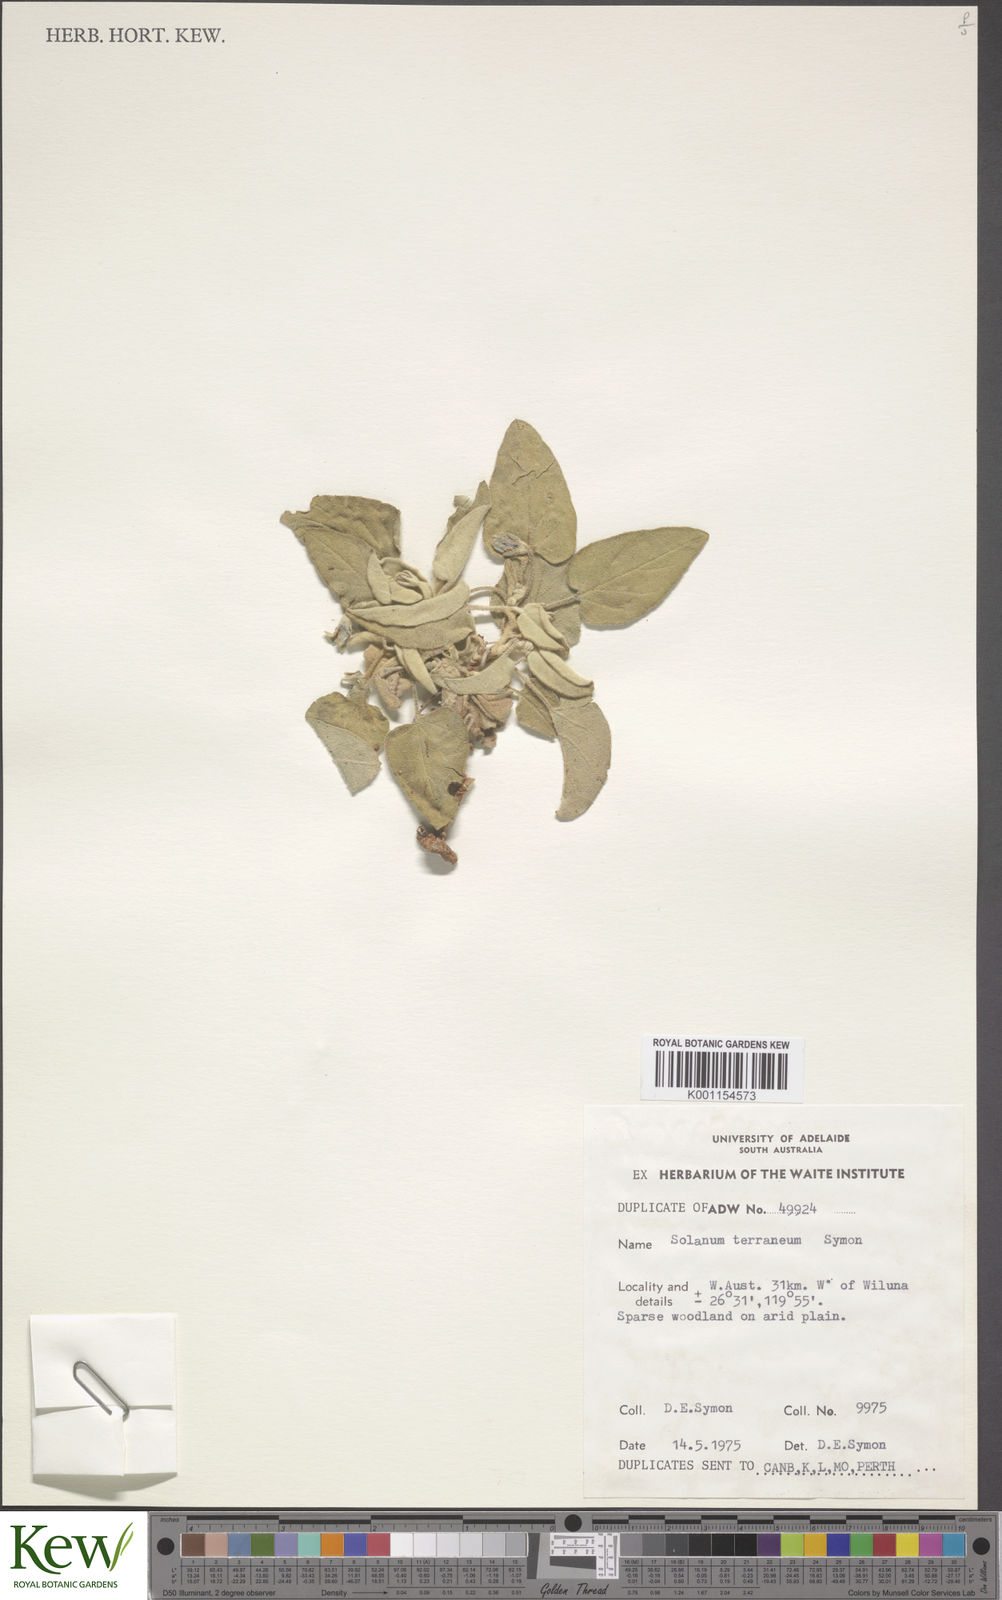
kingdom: Plantae
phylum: Tracheophyta
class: Magnoliopsida
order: Solanales
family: Solanaceae
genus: Solanum
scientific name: Solanum terraneum
